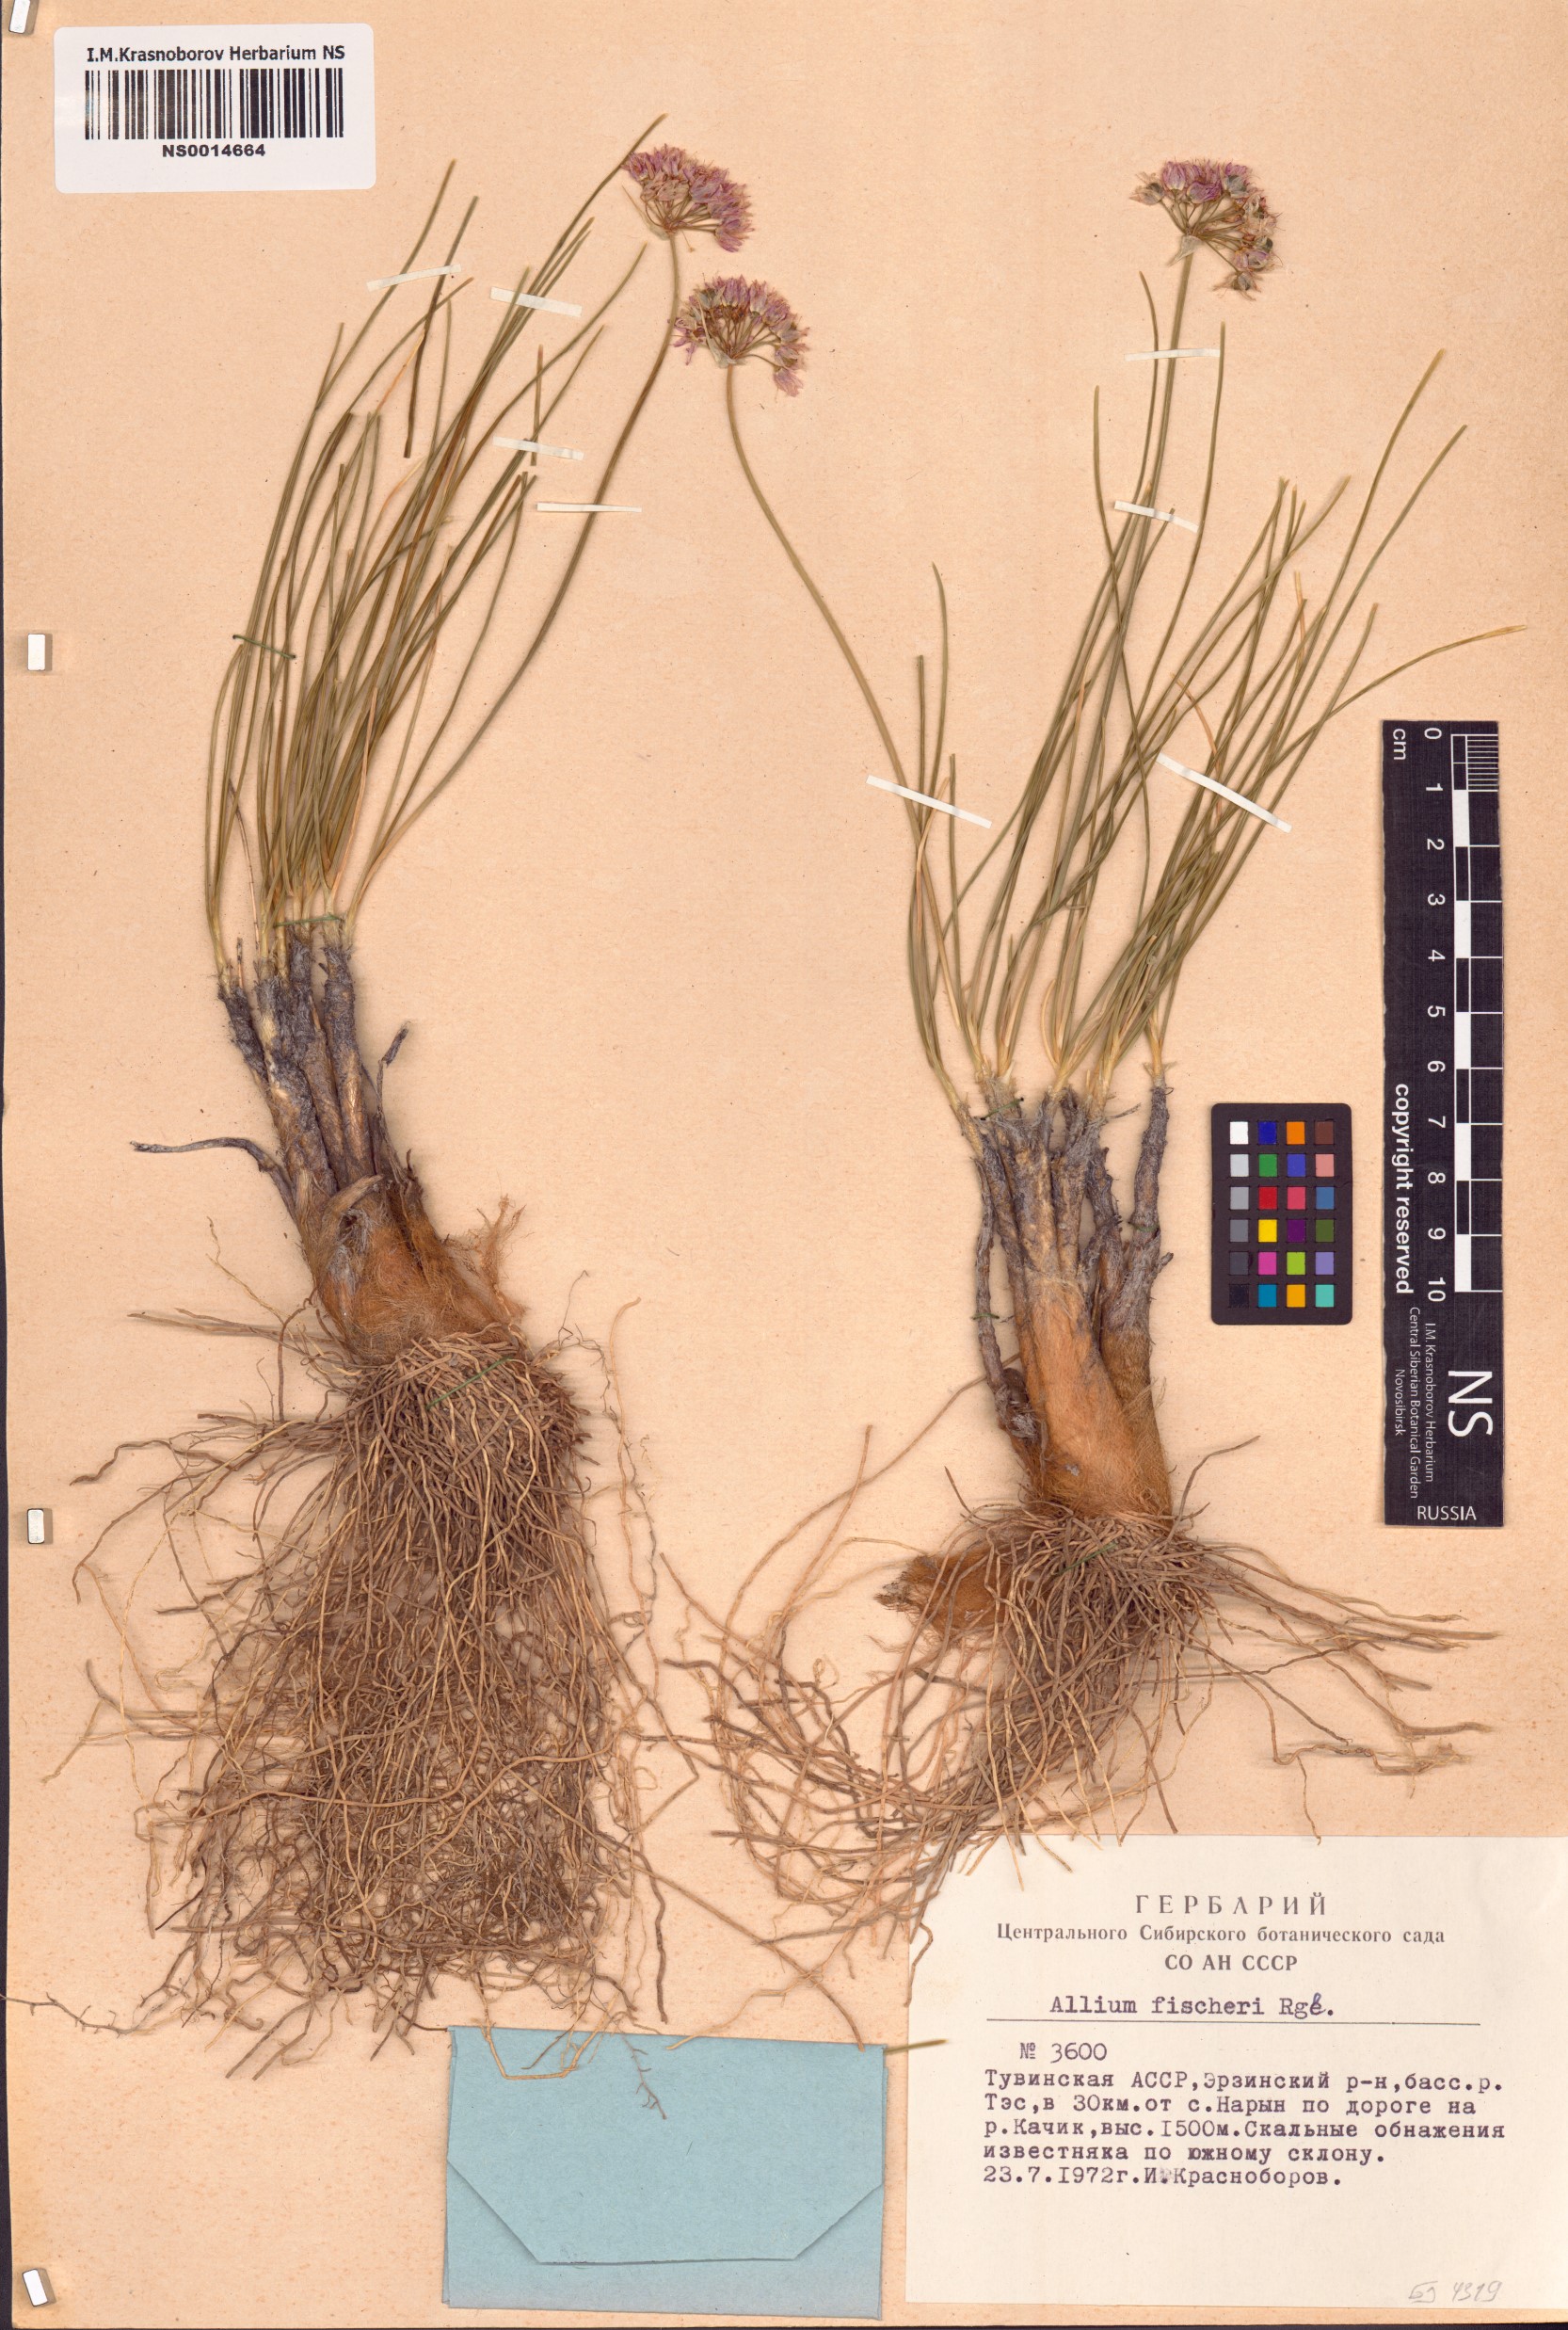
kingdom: Plantae
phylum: Tracheophyta
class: Liliopsida
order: Asparagales
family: Amaryllidaceae
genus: Allium
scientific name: Allium eduardi
